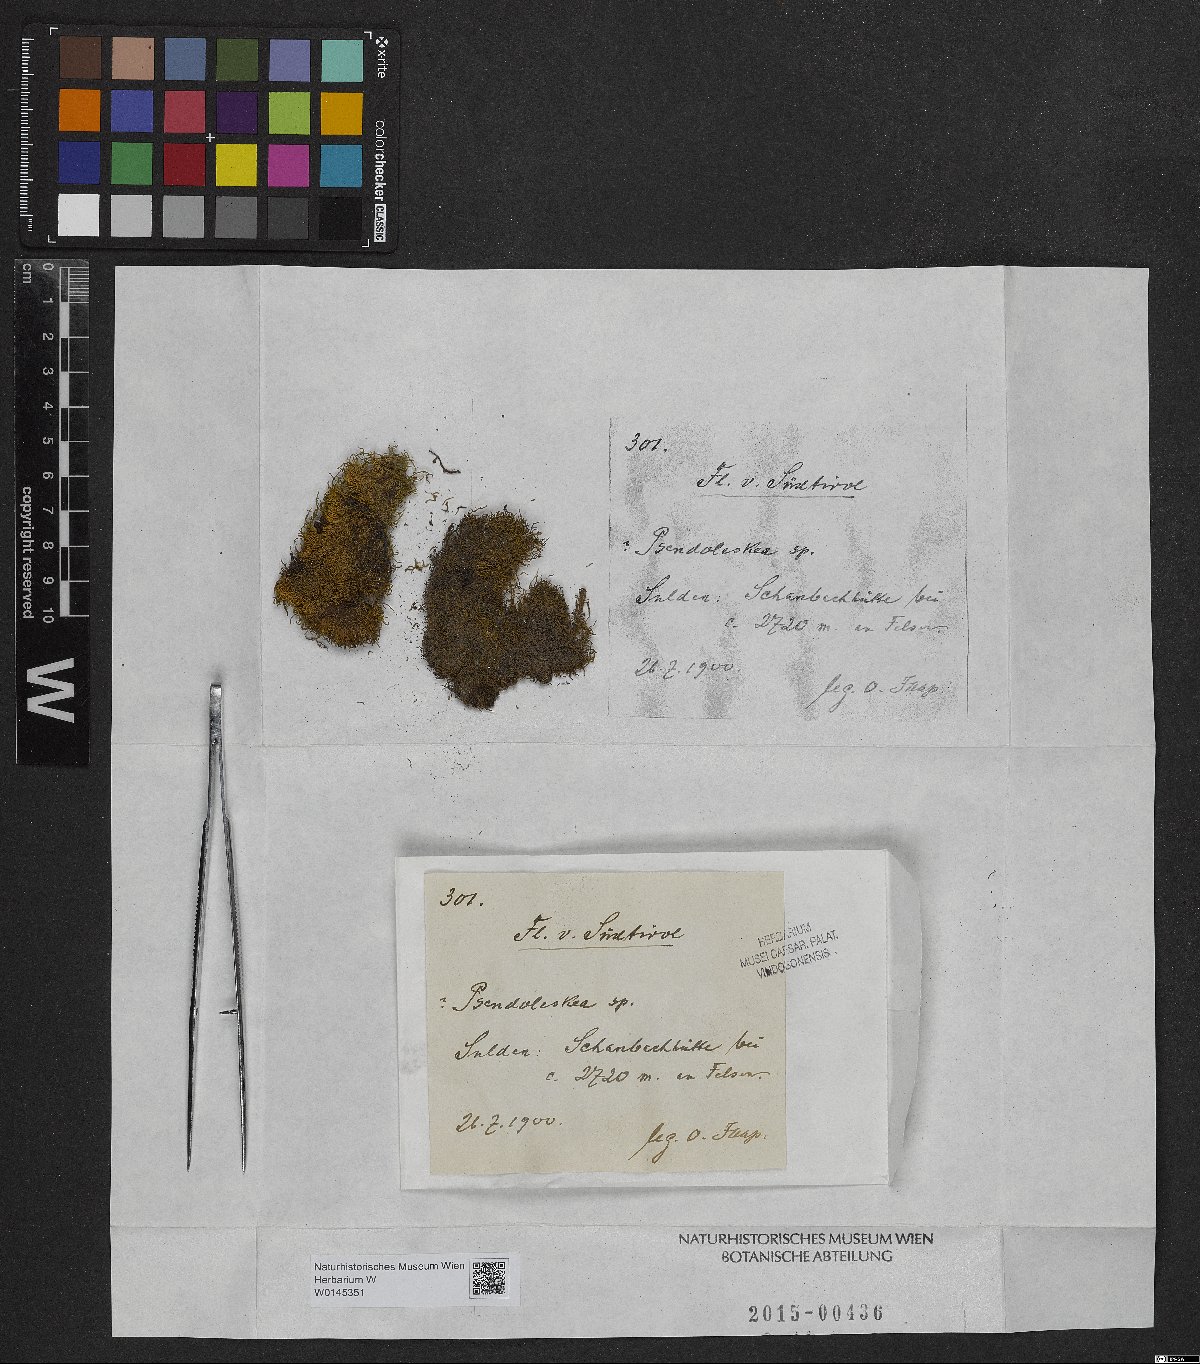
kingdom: Plantae
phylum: Bryophyta
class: Bryopsida
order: Hypnales
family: Pseudoleskeaceae
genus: Pseudoleskea
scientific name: Pseudoleskea
